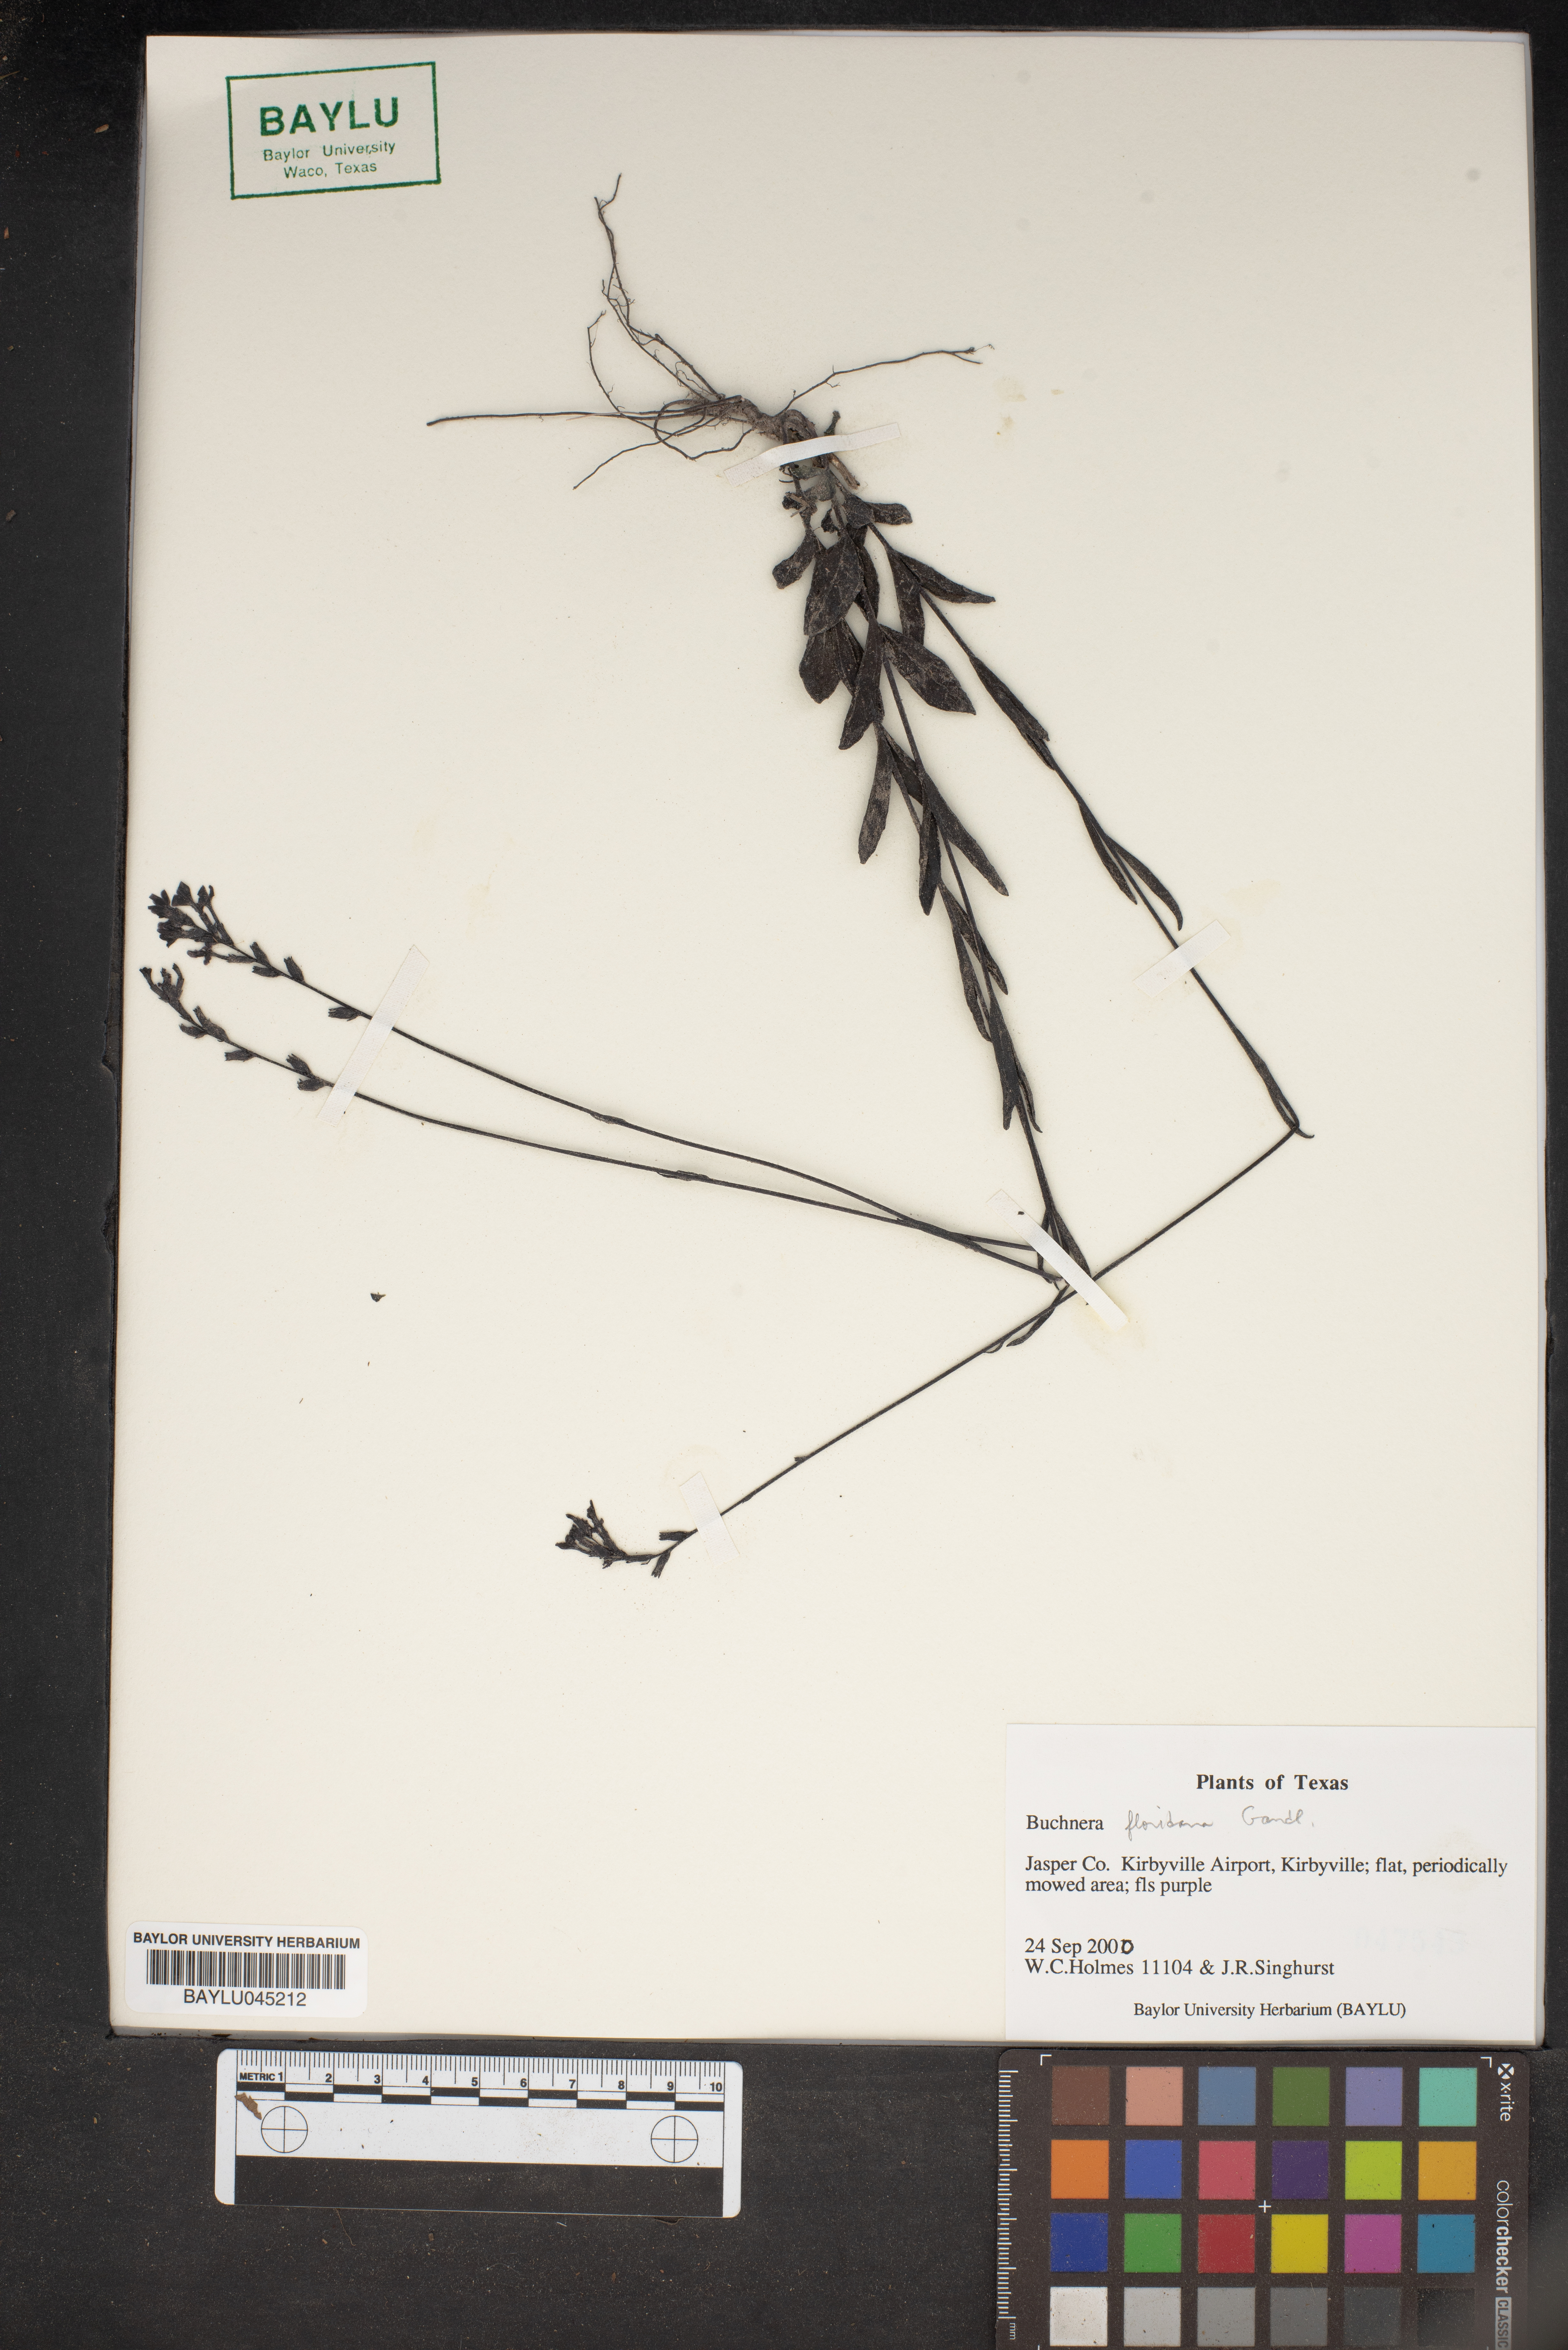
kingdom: Plantae
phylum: Tracheophyta
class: Magnoliopsida
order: Lamiales
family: Orobanchaceae
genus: Buchnera
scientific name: Buchnera floridana
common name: Florida bluehearts
